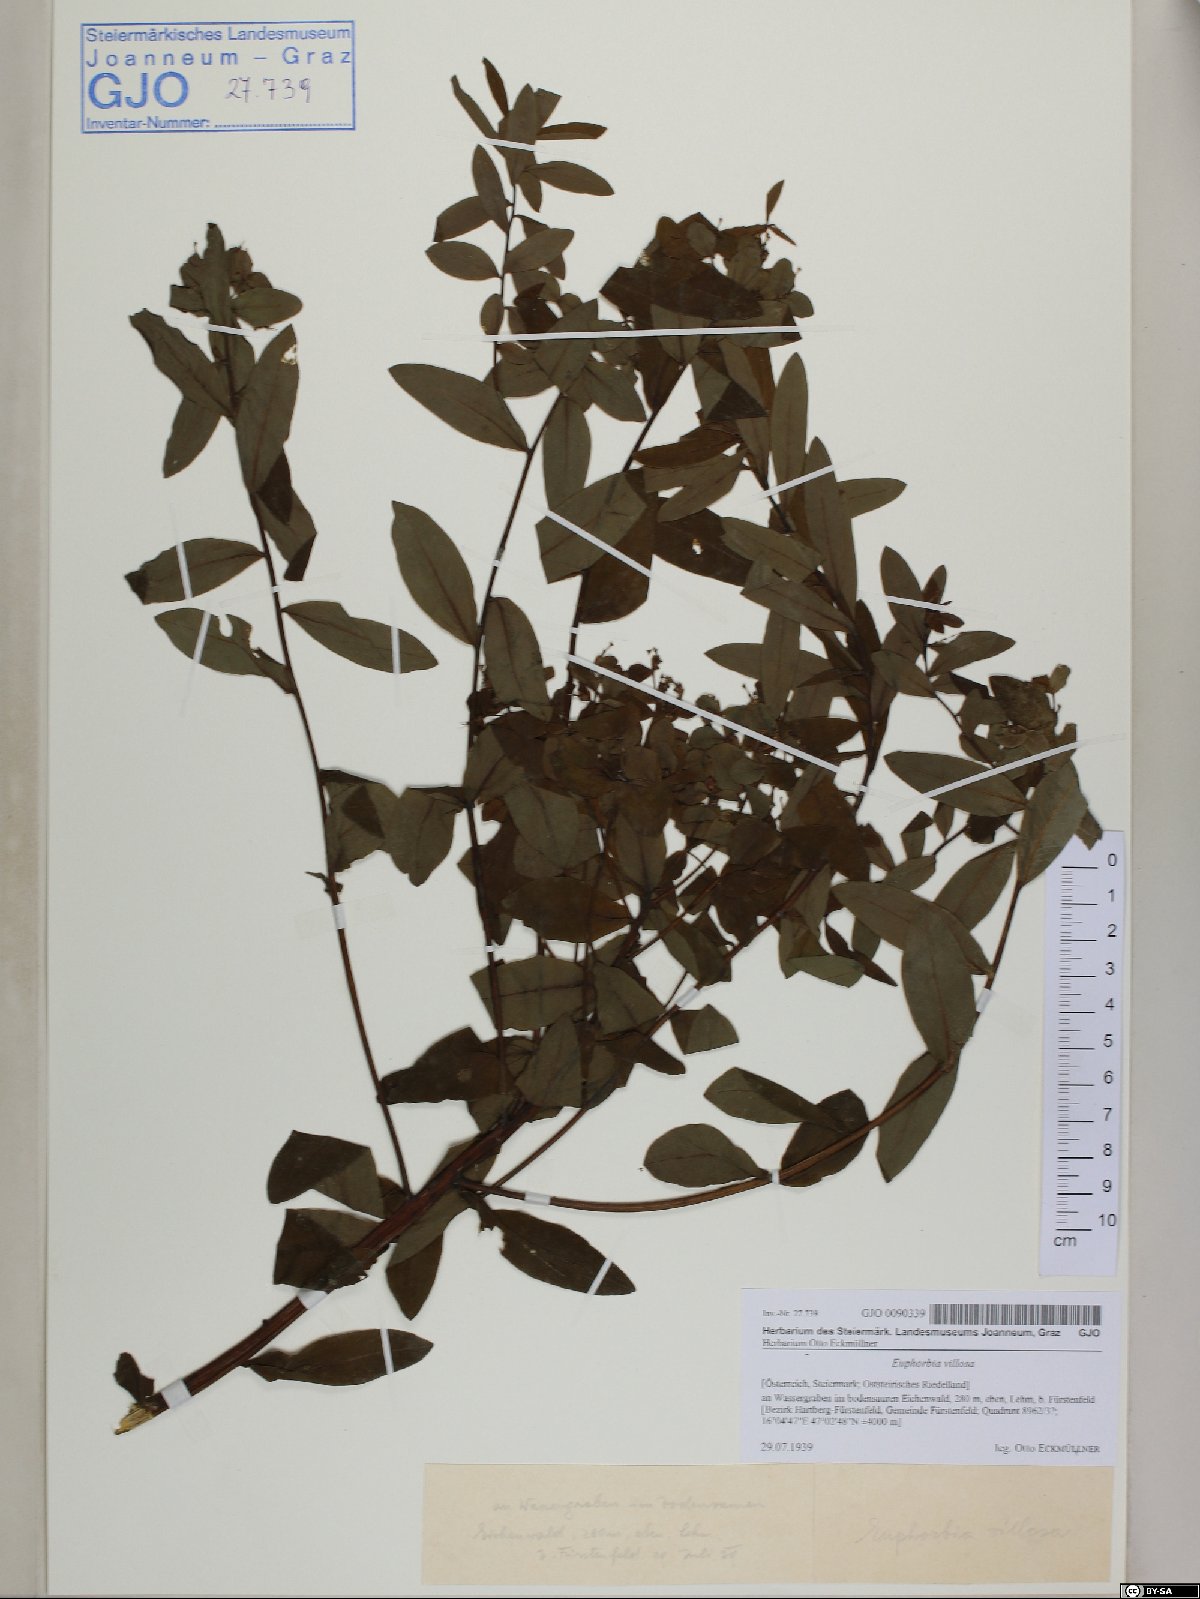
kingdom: Plantae
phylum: Tracheophyta
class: Magnoliopsida
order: Malpighiales
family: Euphorbiaceae
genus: Euphorbia
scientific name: Euphorbia illirica
